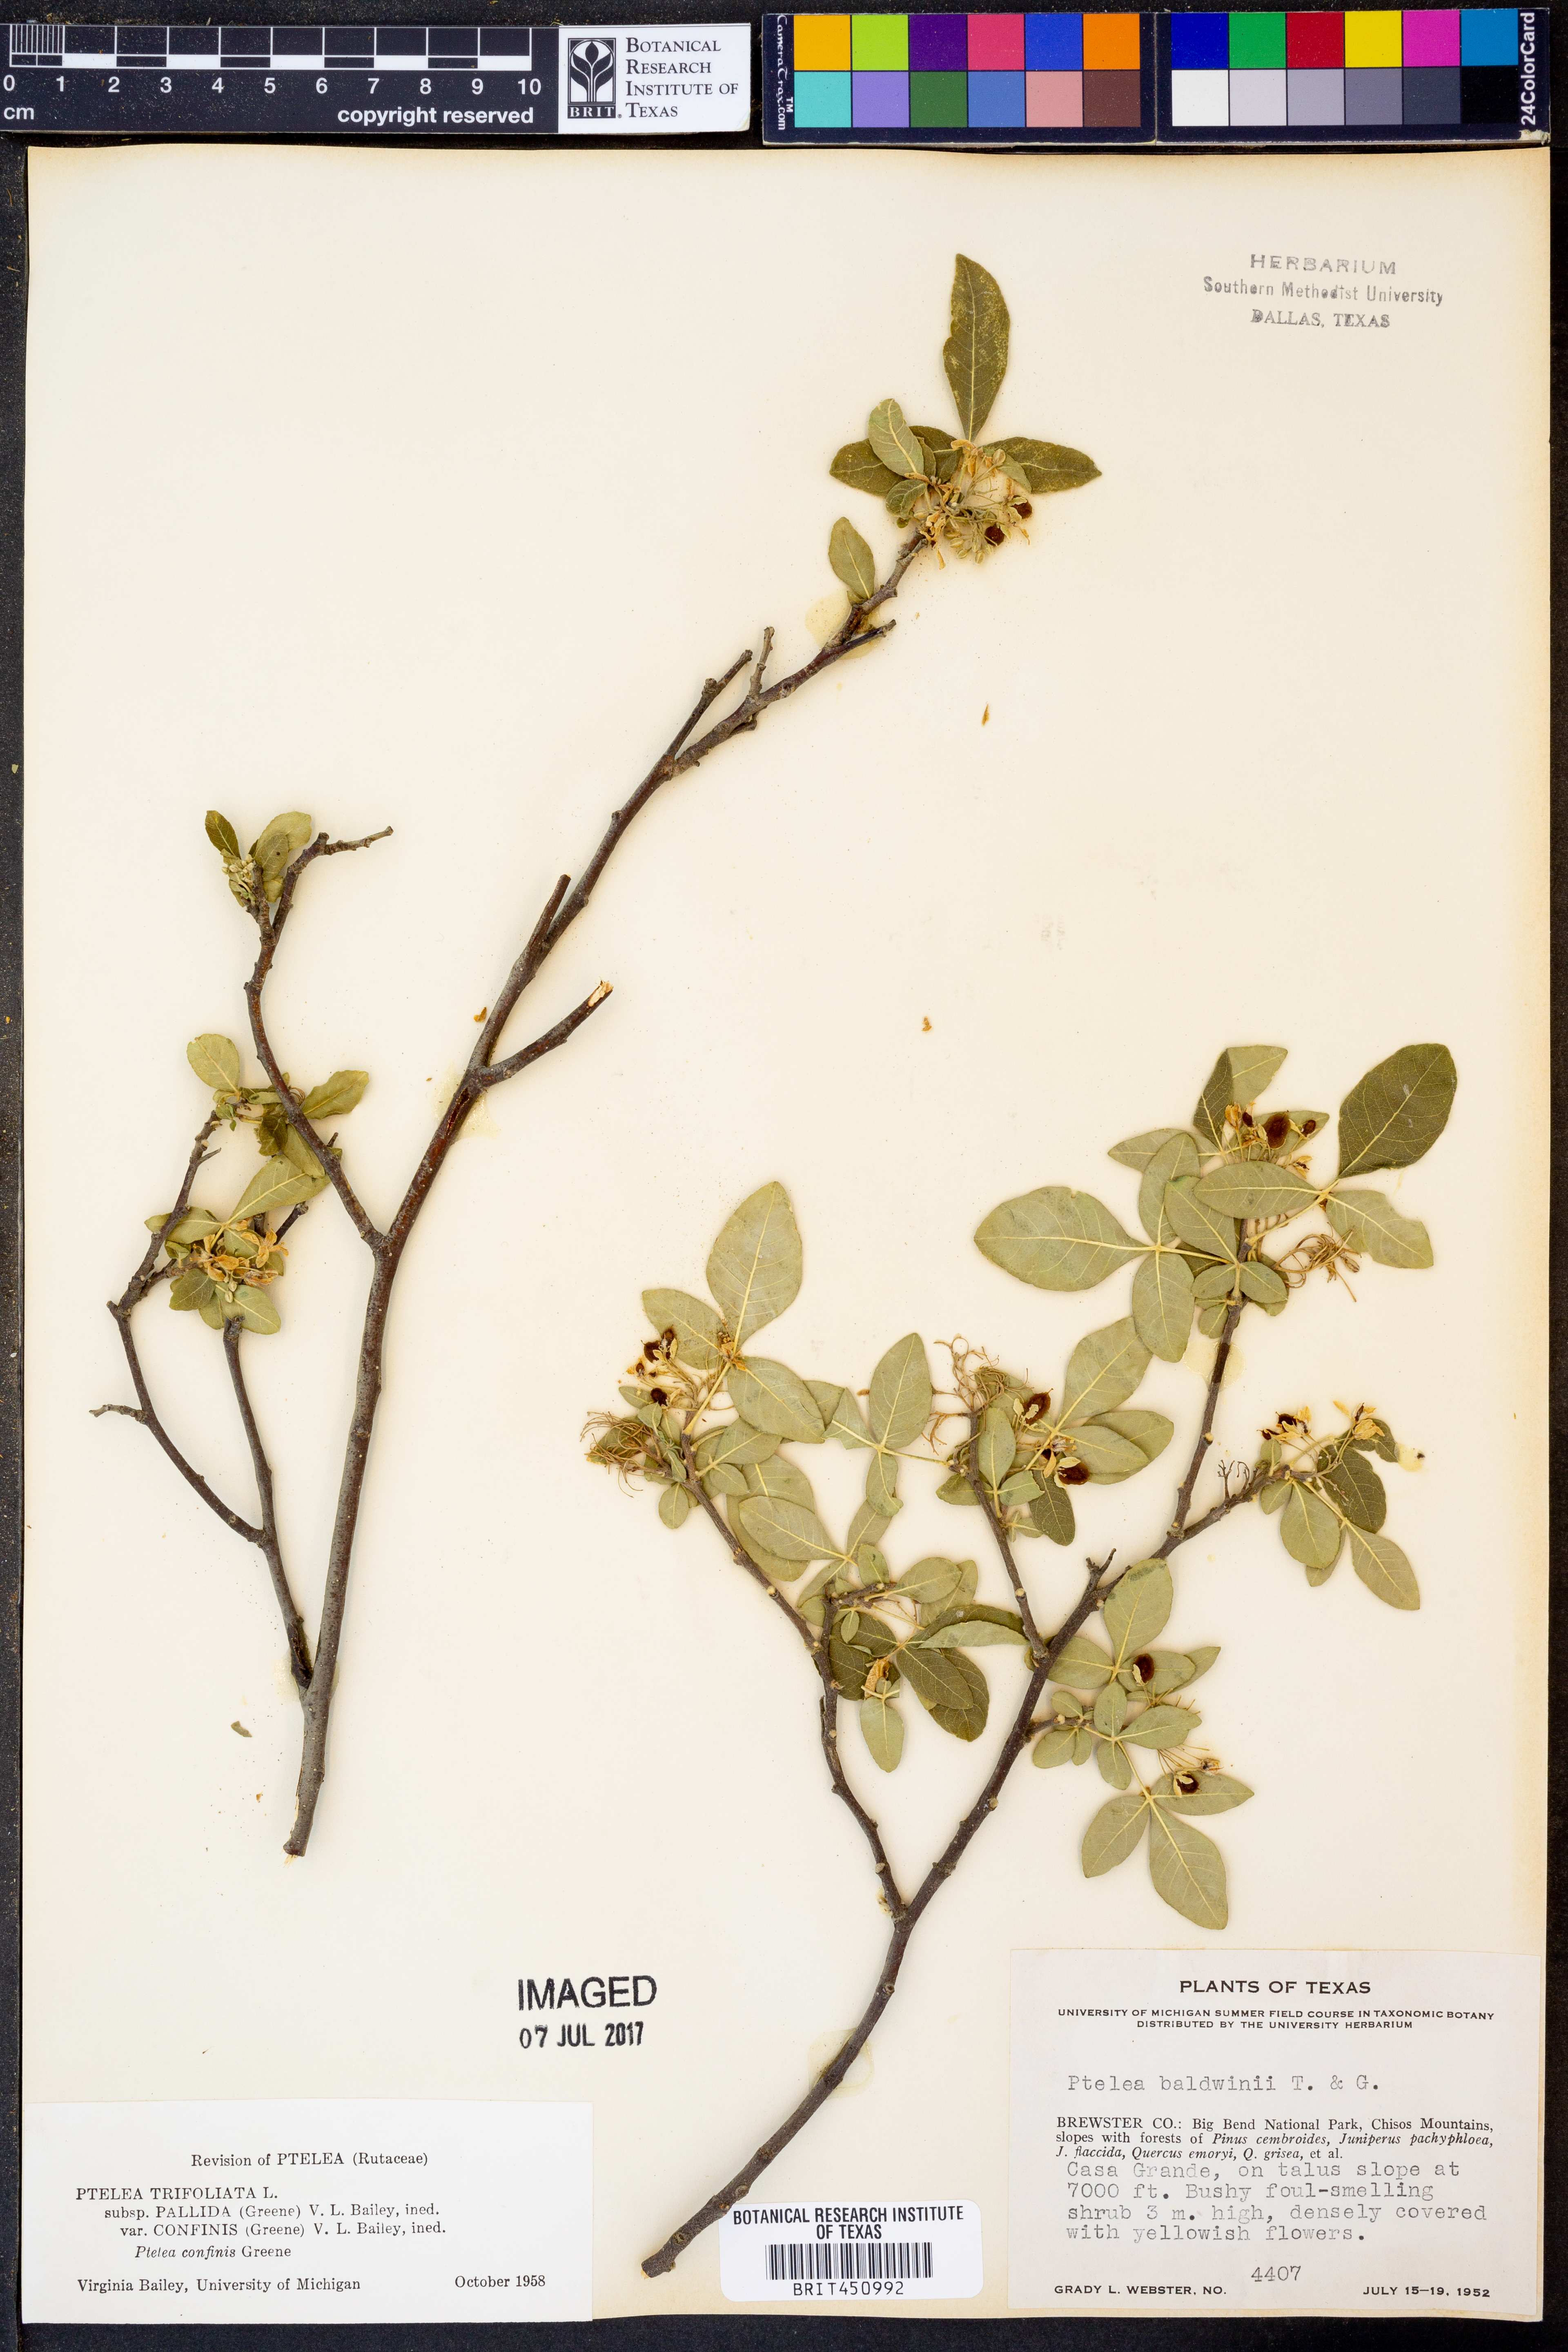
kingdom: Plantae
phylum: Tracheophyta
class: Magnoliopsida
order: Sapindales
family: Rutaceae
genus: Ptelea
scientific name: Ptelea trifoliata
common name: Common hop-tree
